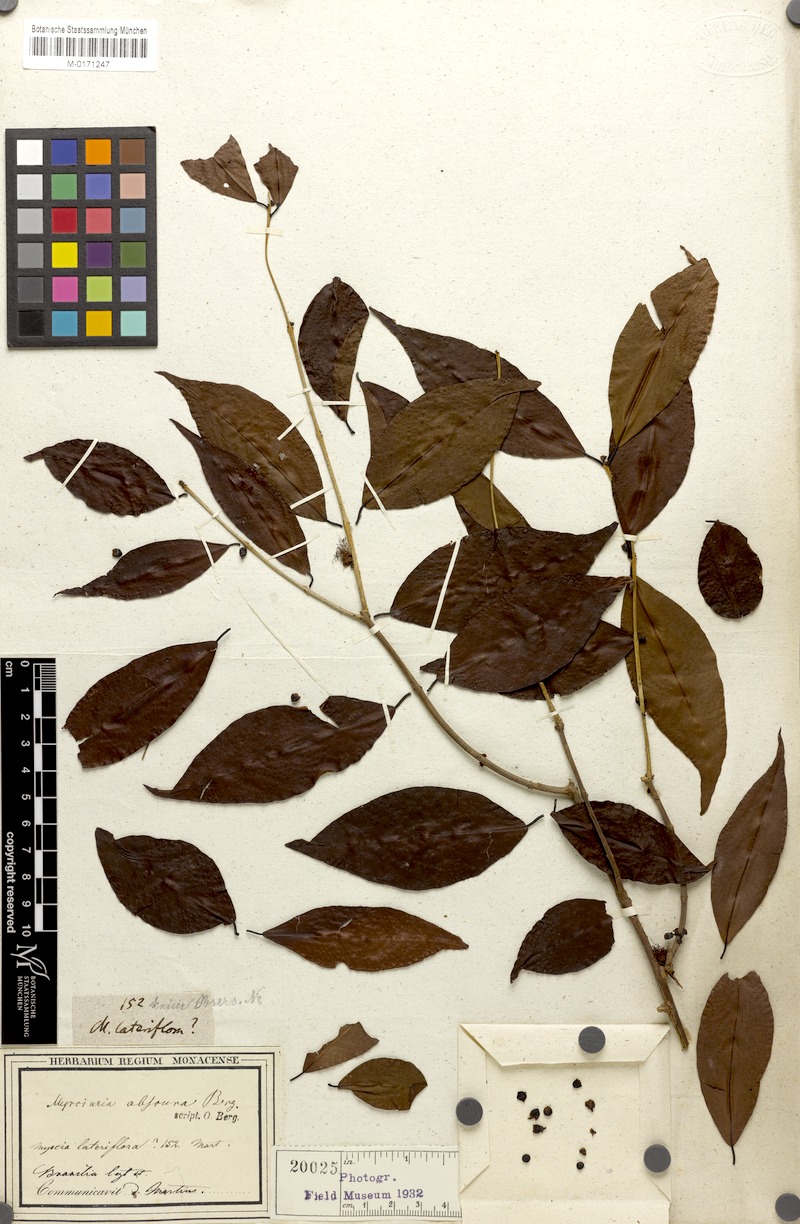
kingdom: Plantae
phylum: Tracheophyta
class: Magnoliopsida
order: Myrtales
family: Myrtaceae
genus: Myrciaria
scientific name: Myrciaria dubia
